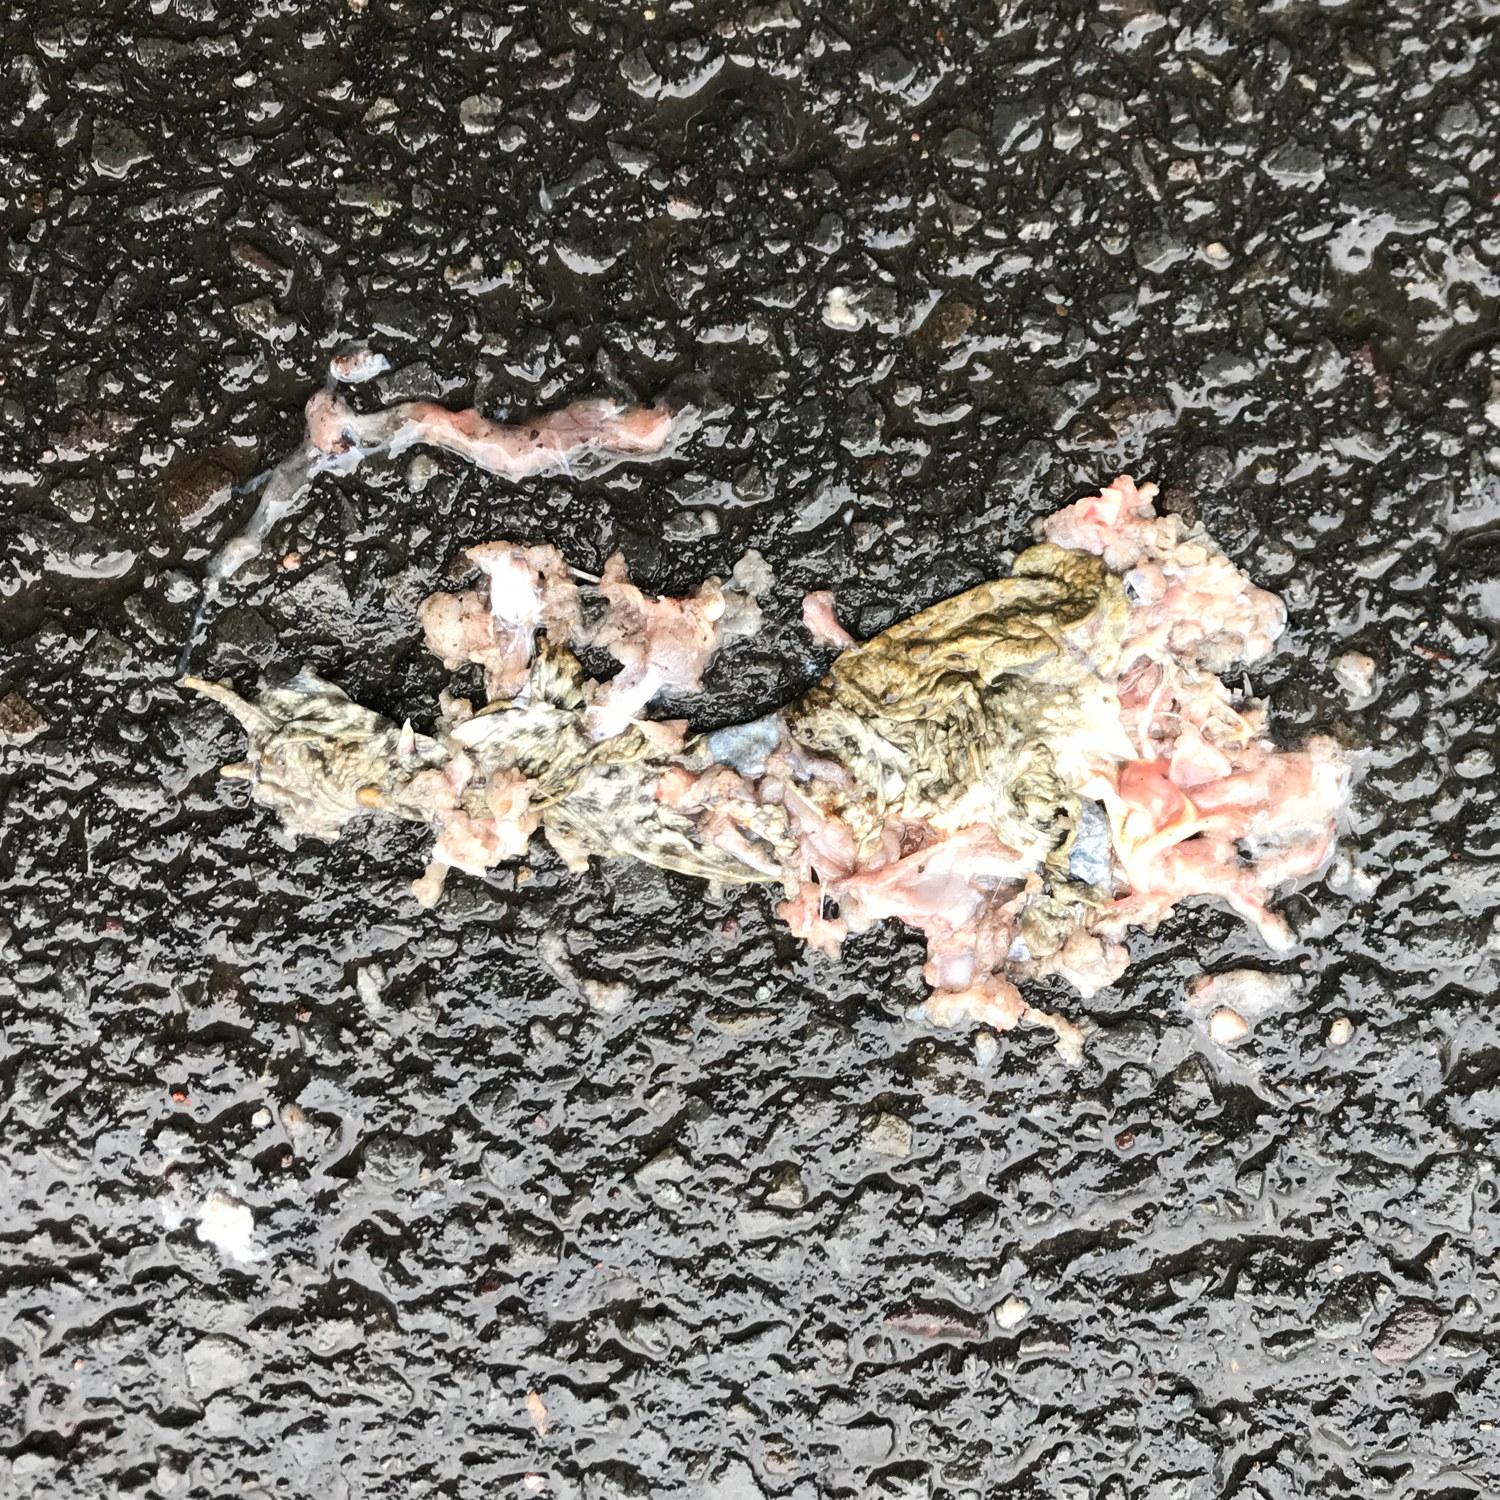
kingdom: Animalia
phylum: Chordata
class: Amphibia
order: Anura
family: Bufonidae
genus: Bufo
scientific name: Bufo bufo
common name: Common toad
